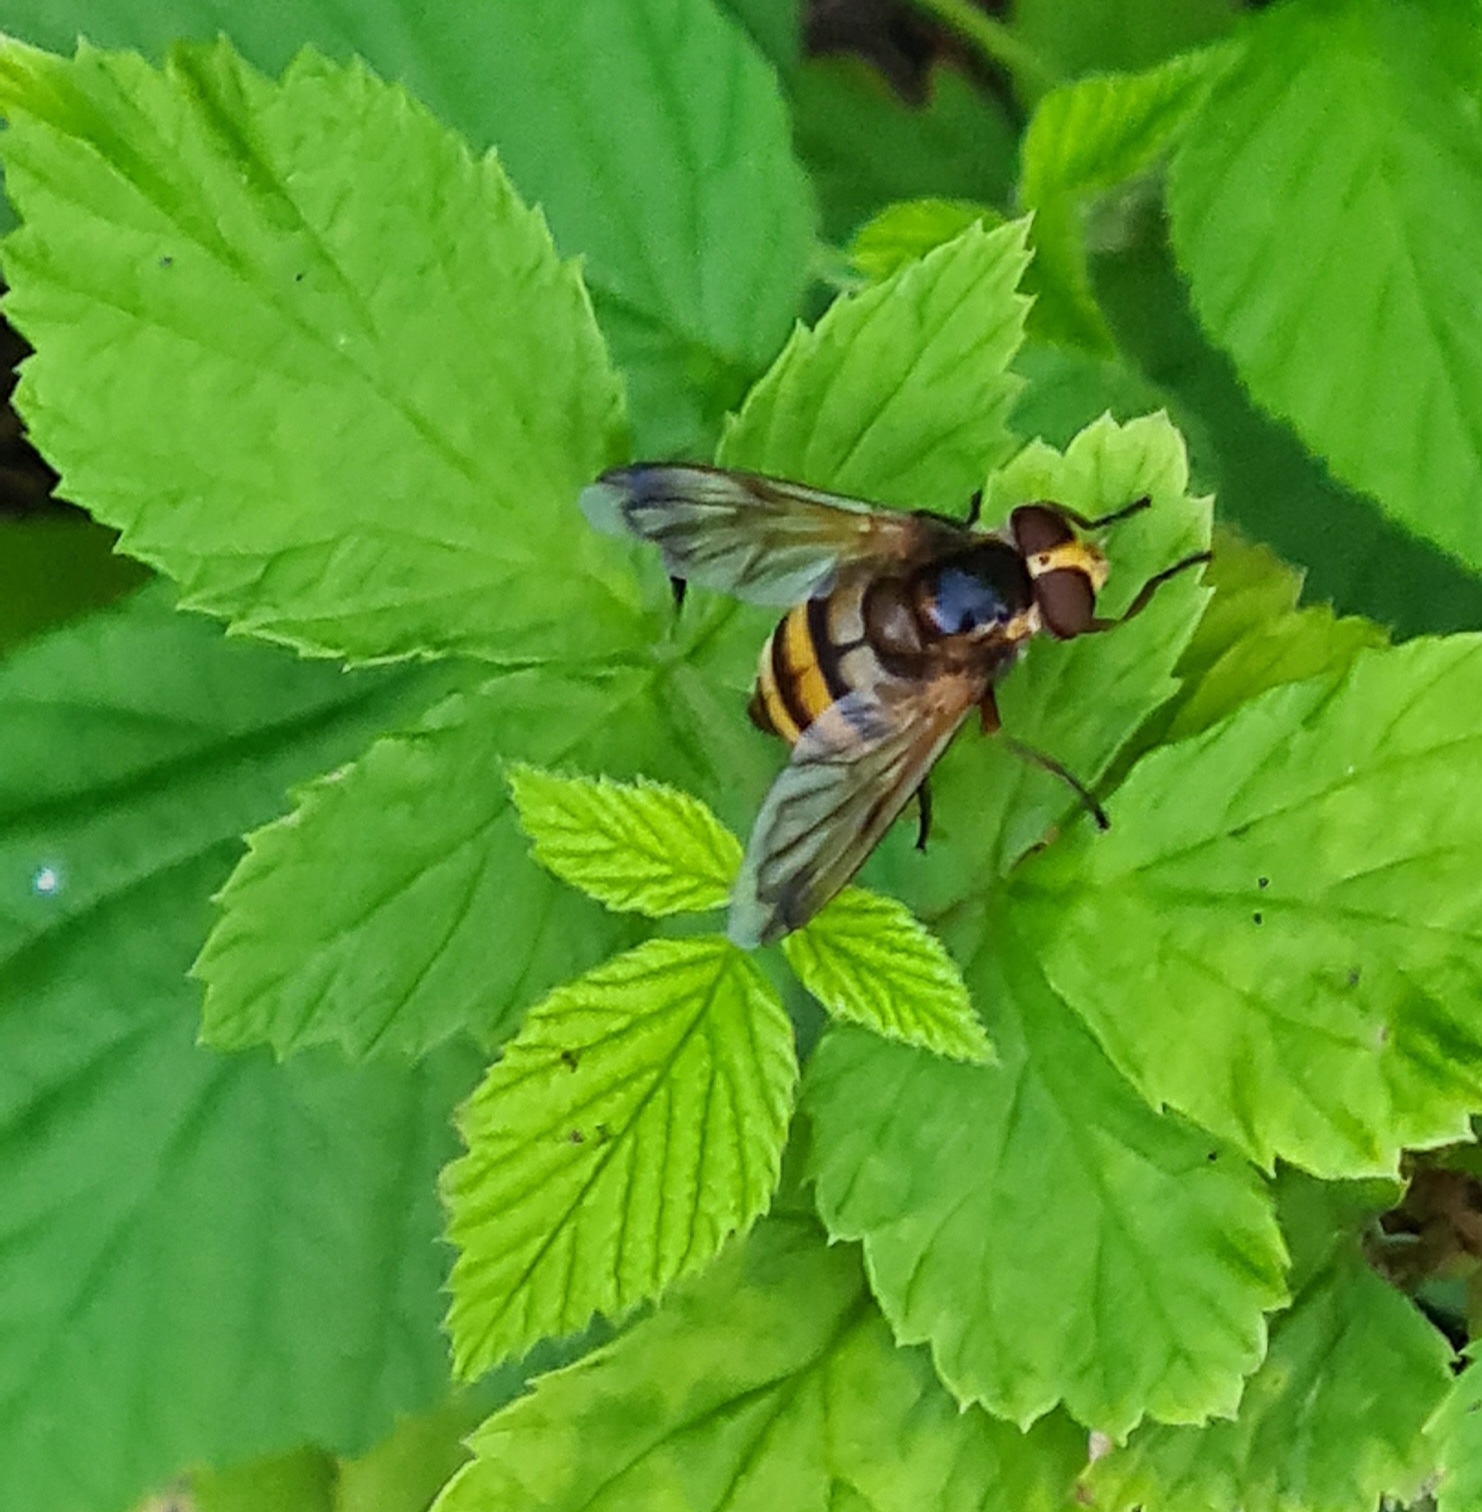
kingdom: Animalia
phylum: Arthropoda
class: Insecta
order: Diptera
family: Syrphidae
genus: Volucella
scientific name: Volucella inanis
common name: Gul humlesvirreflue
